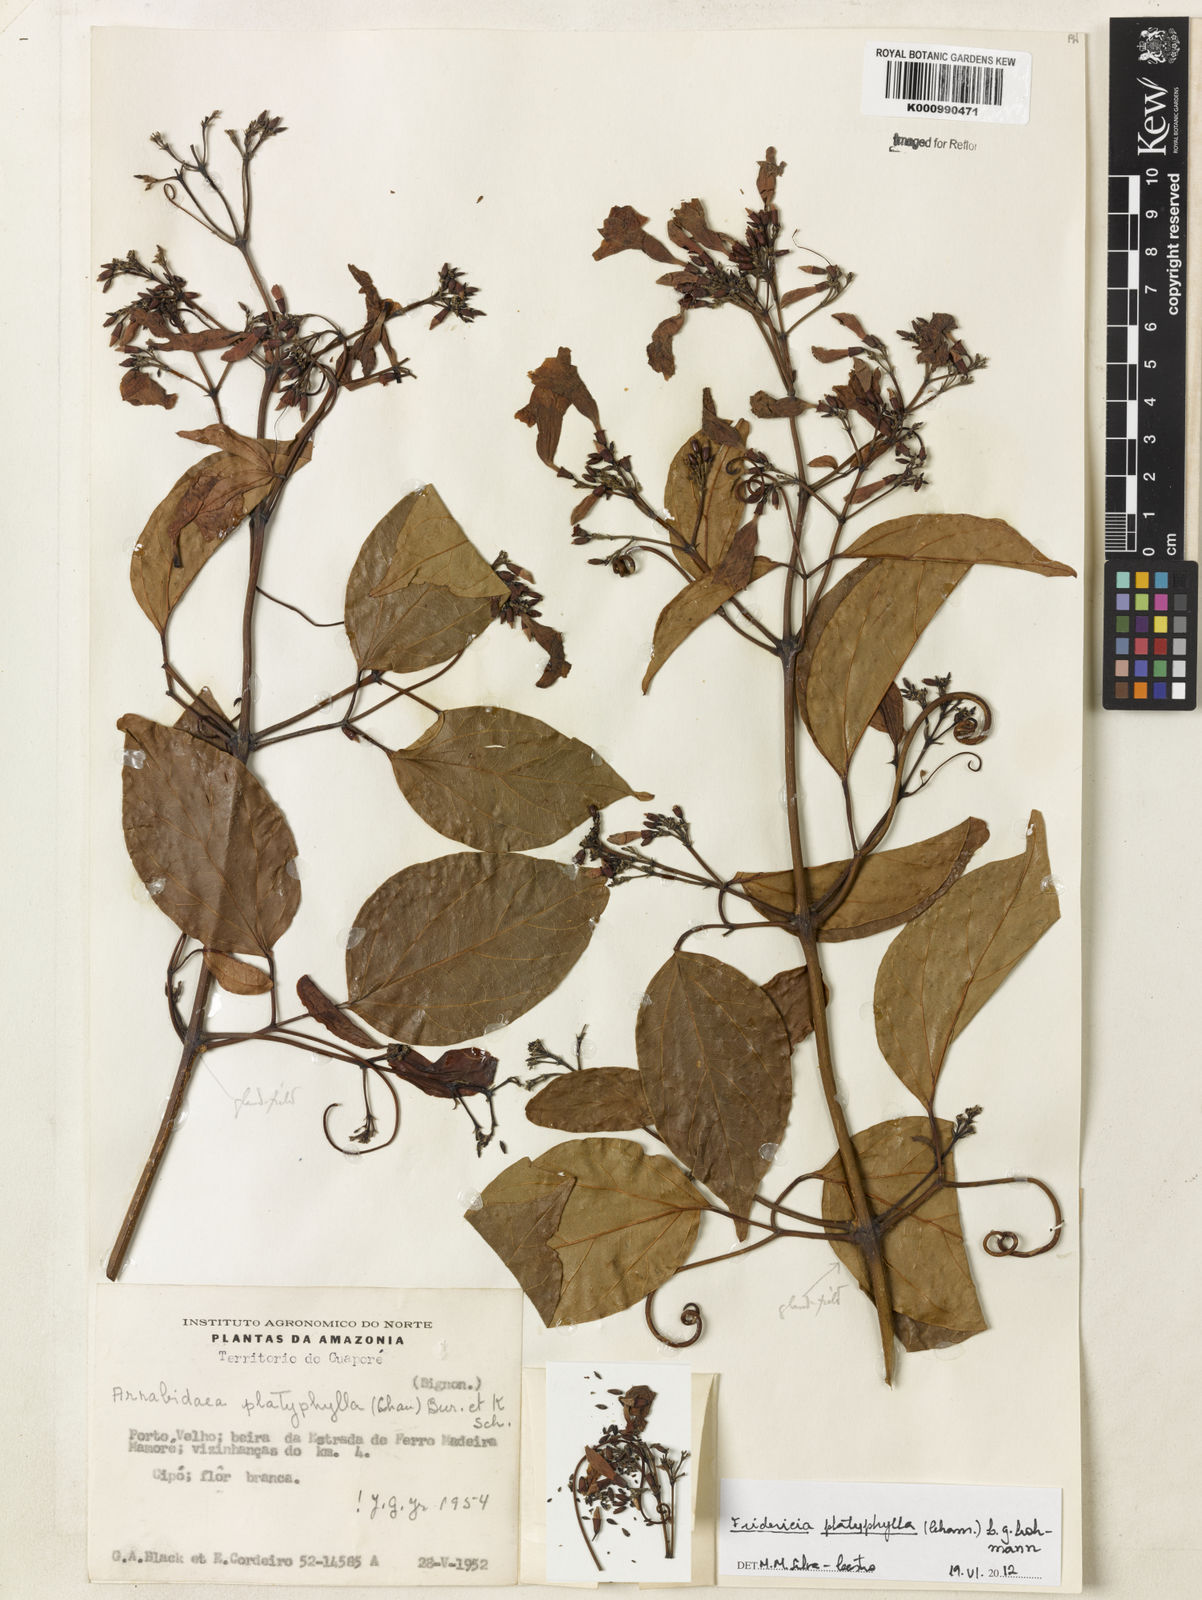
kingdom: Plantae
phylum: Tracheophyta
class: Magnoliopsida
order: Lamiales
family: Bignoniaceae
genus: Fridericia
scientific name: Fridericia platyphylla
